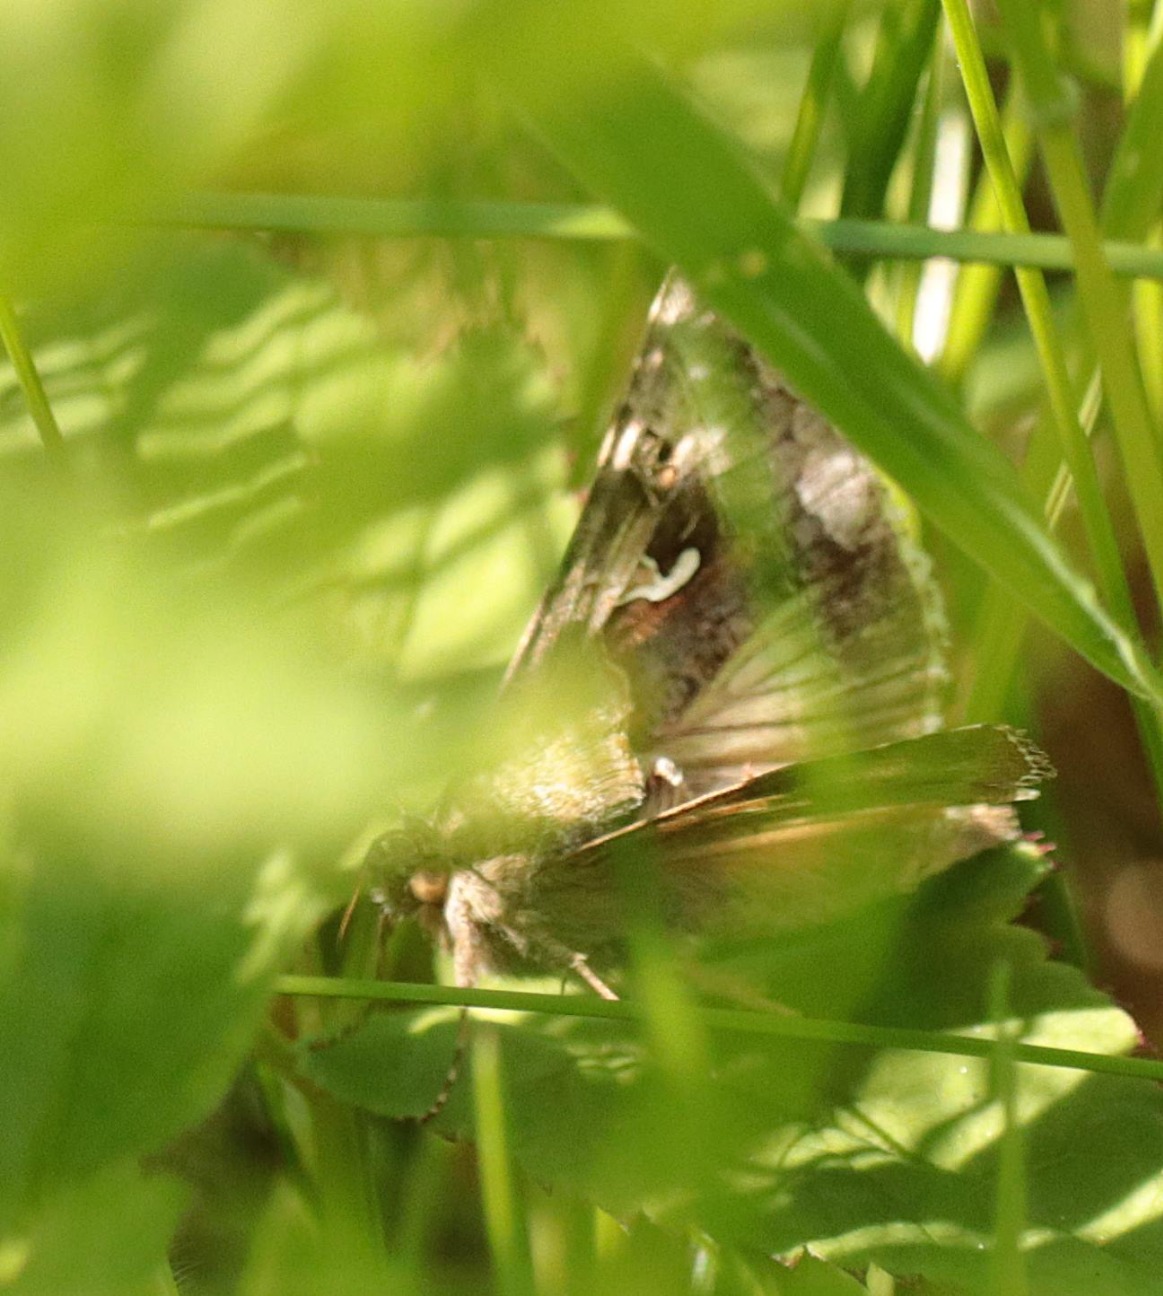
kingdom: Animalia
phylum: Arthropoda
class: Insecta
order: Lepidoptera
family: Noctuidae
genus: Autographa
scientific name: Autographa gamma
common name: Gammaugle
